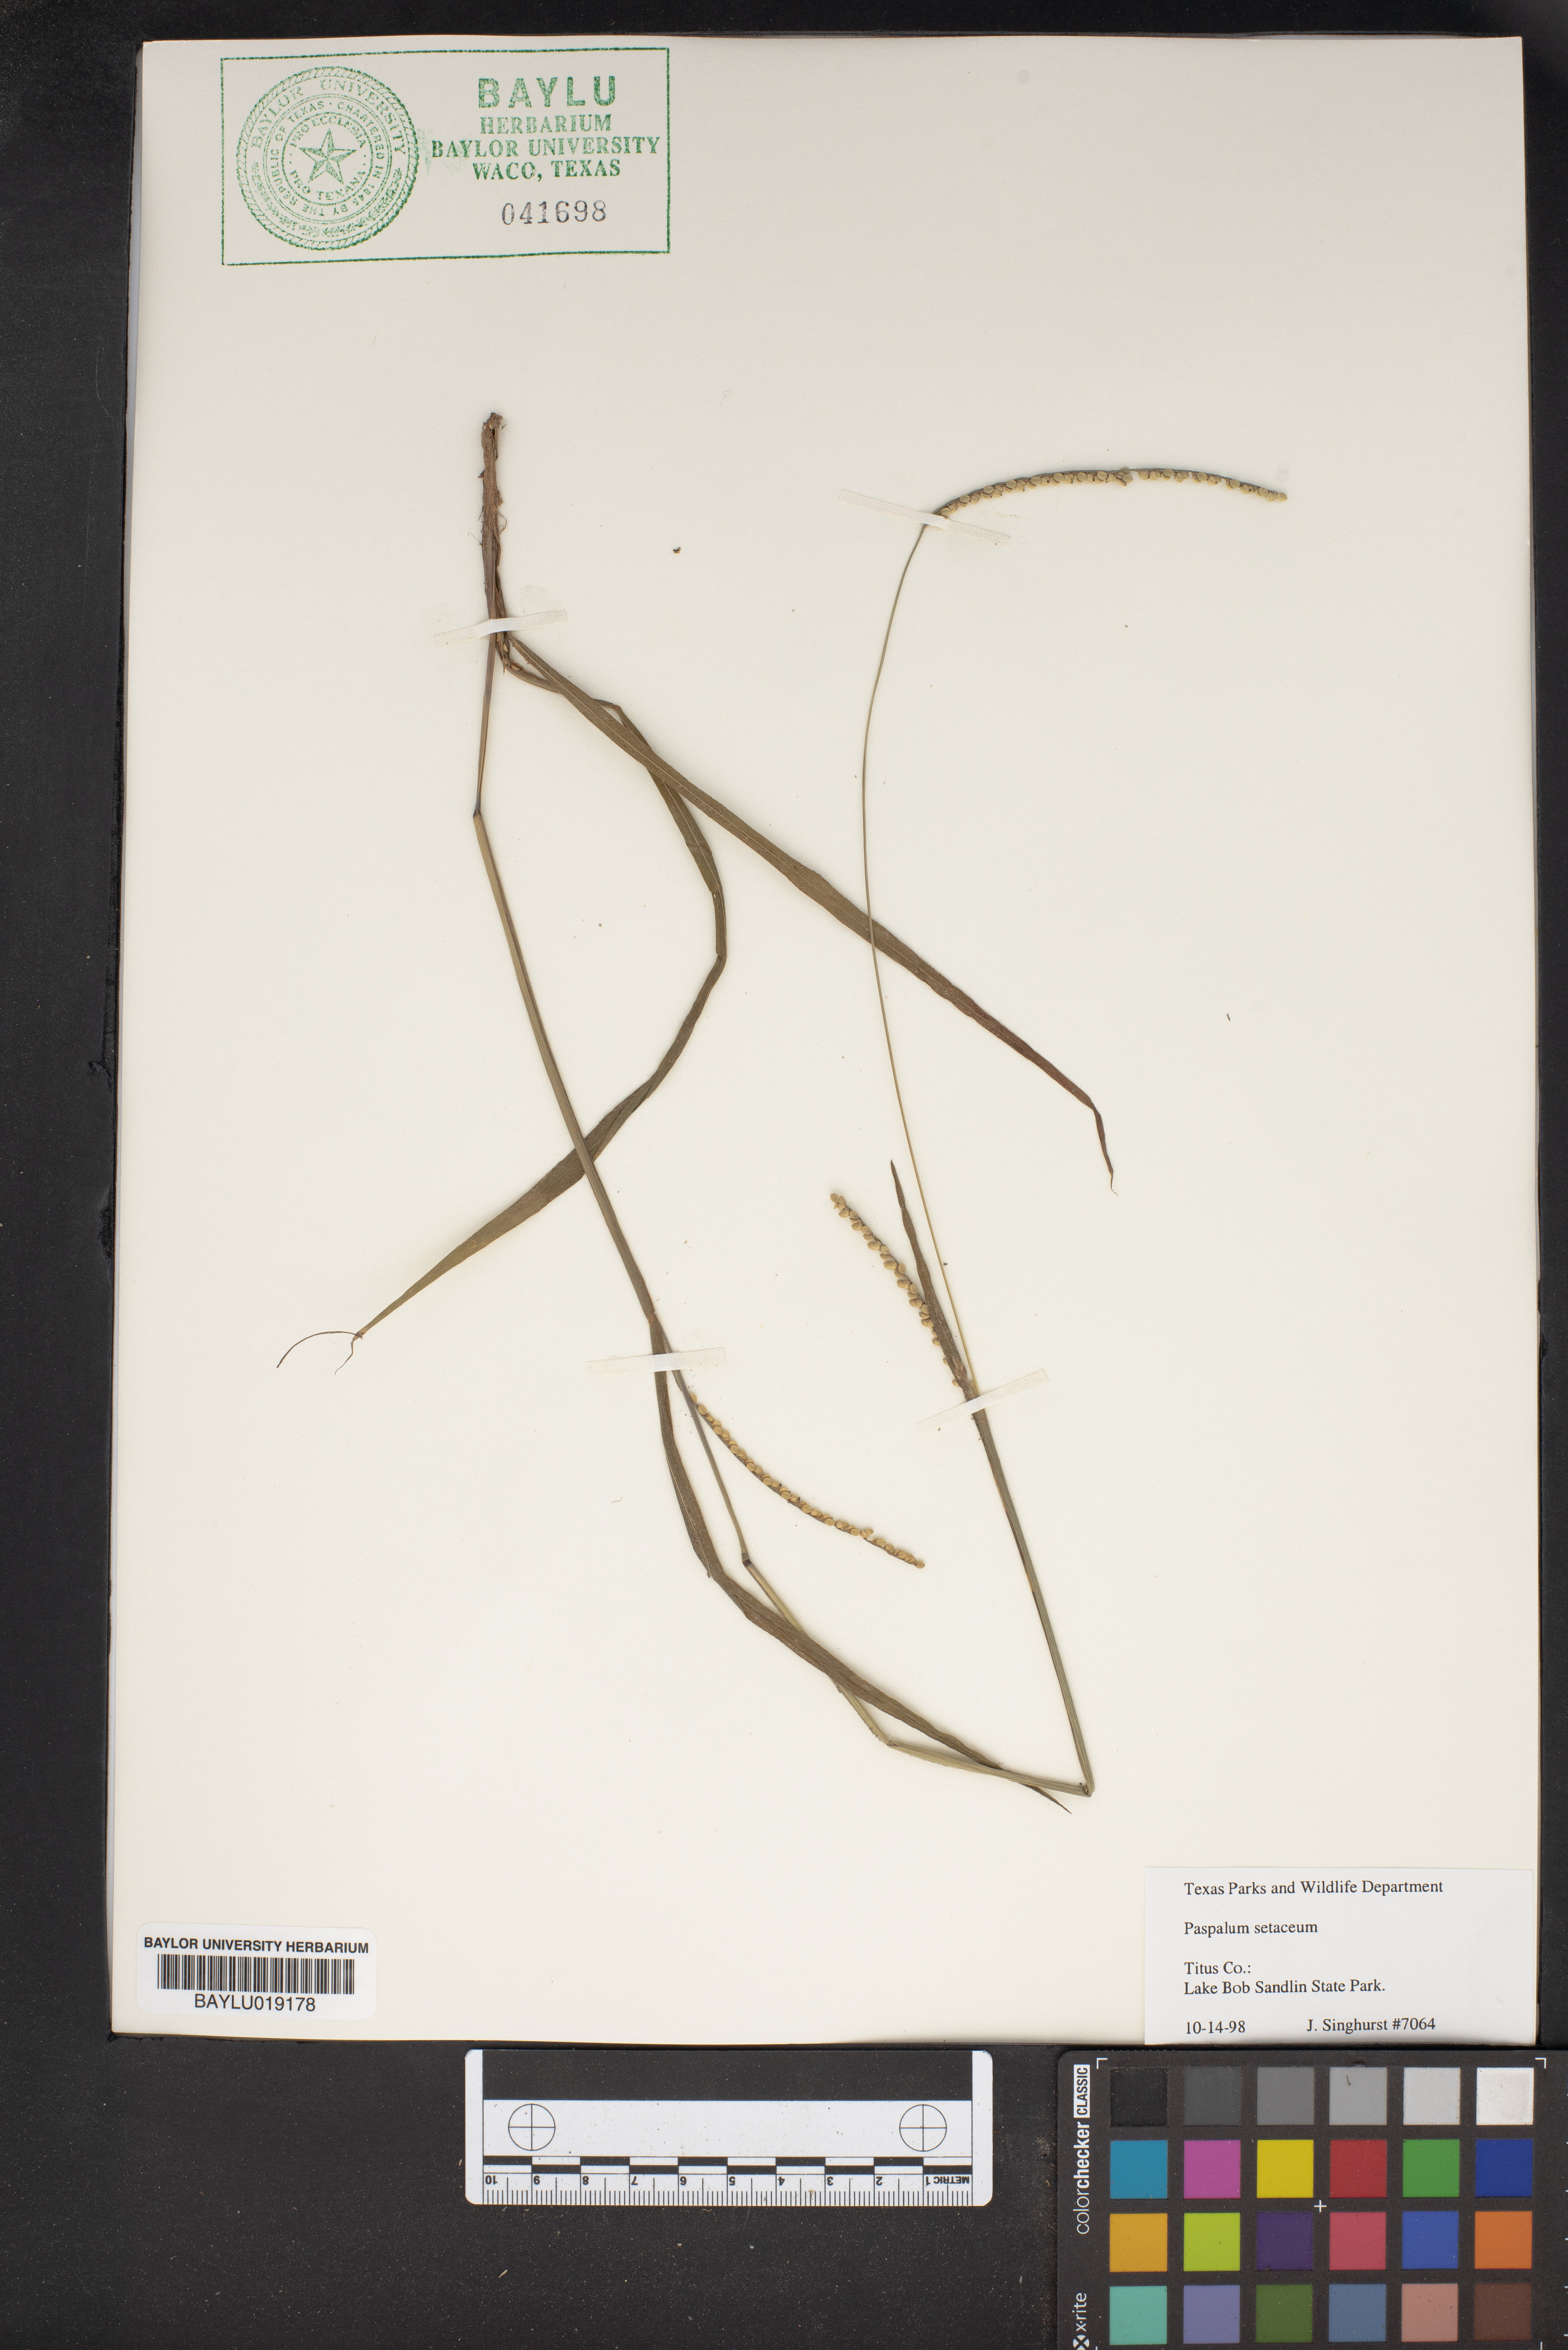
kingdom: Plantae
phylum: Tracheophyta
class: Liliopsida
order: Poales
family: Poaceae
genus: Paspalum
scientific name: Paspalum setaceum
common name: Slender paspalum
